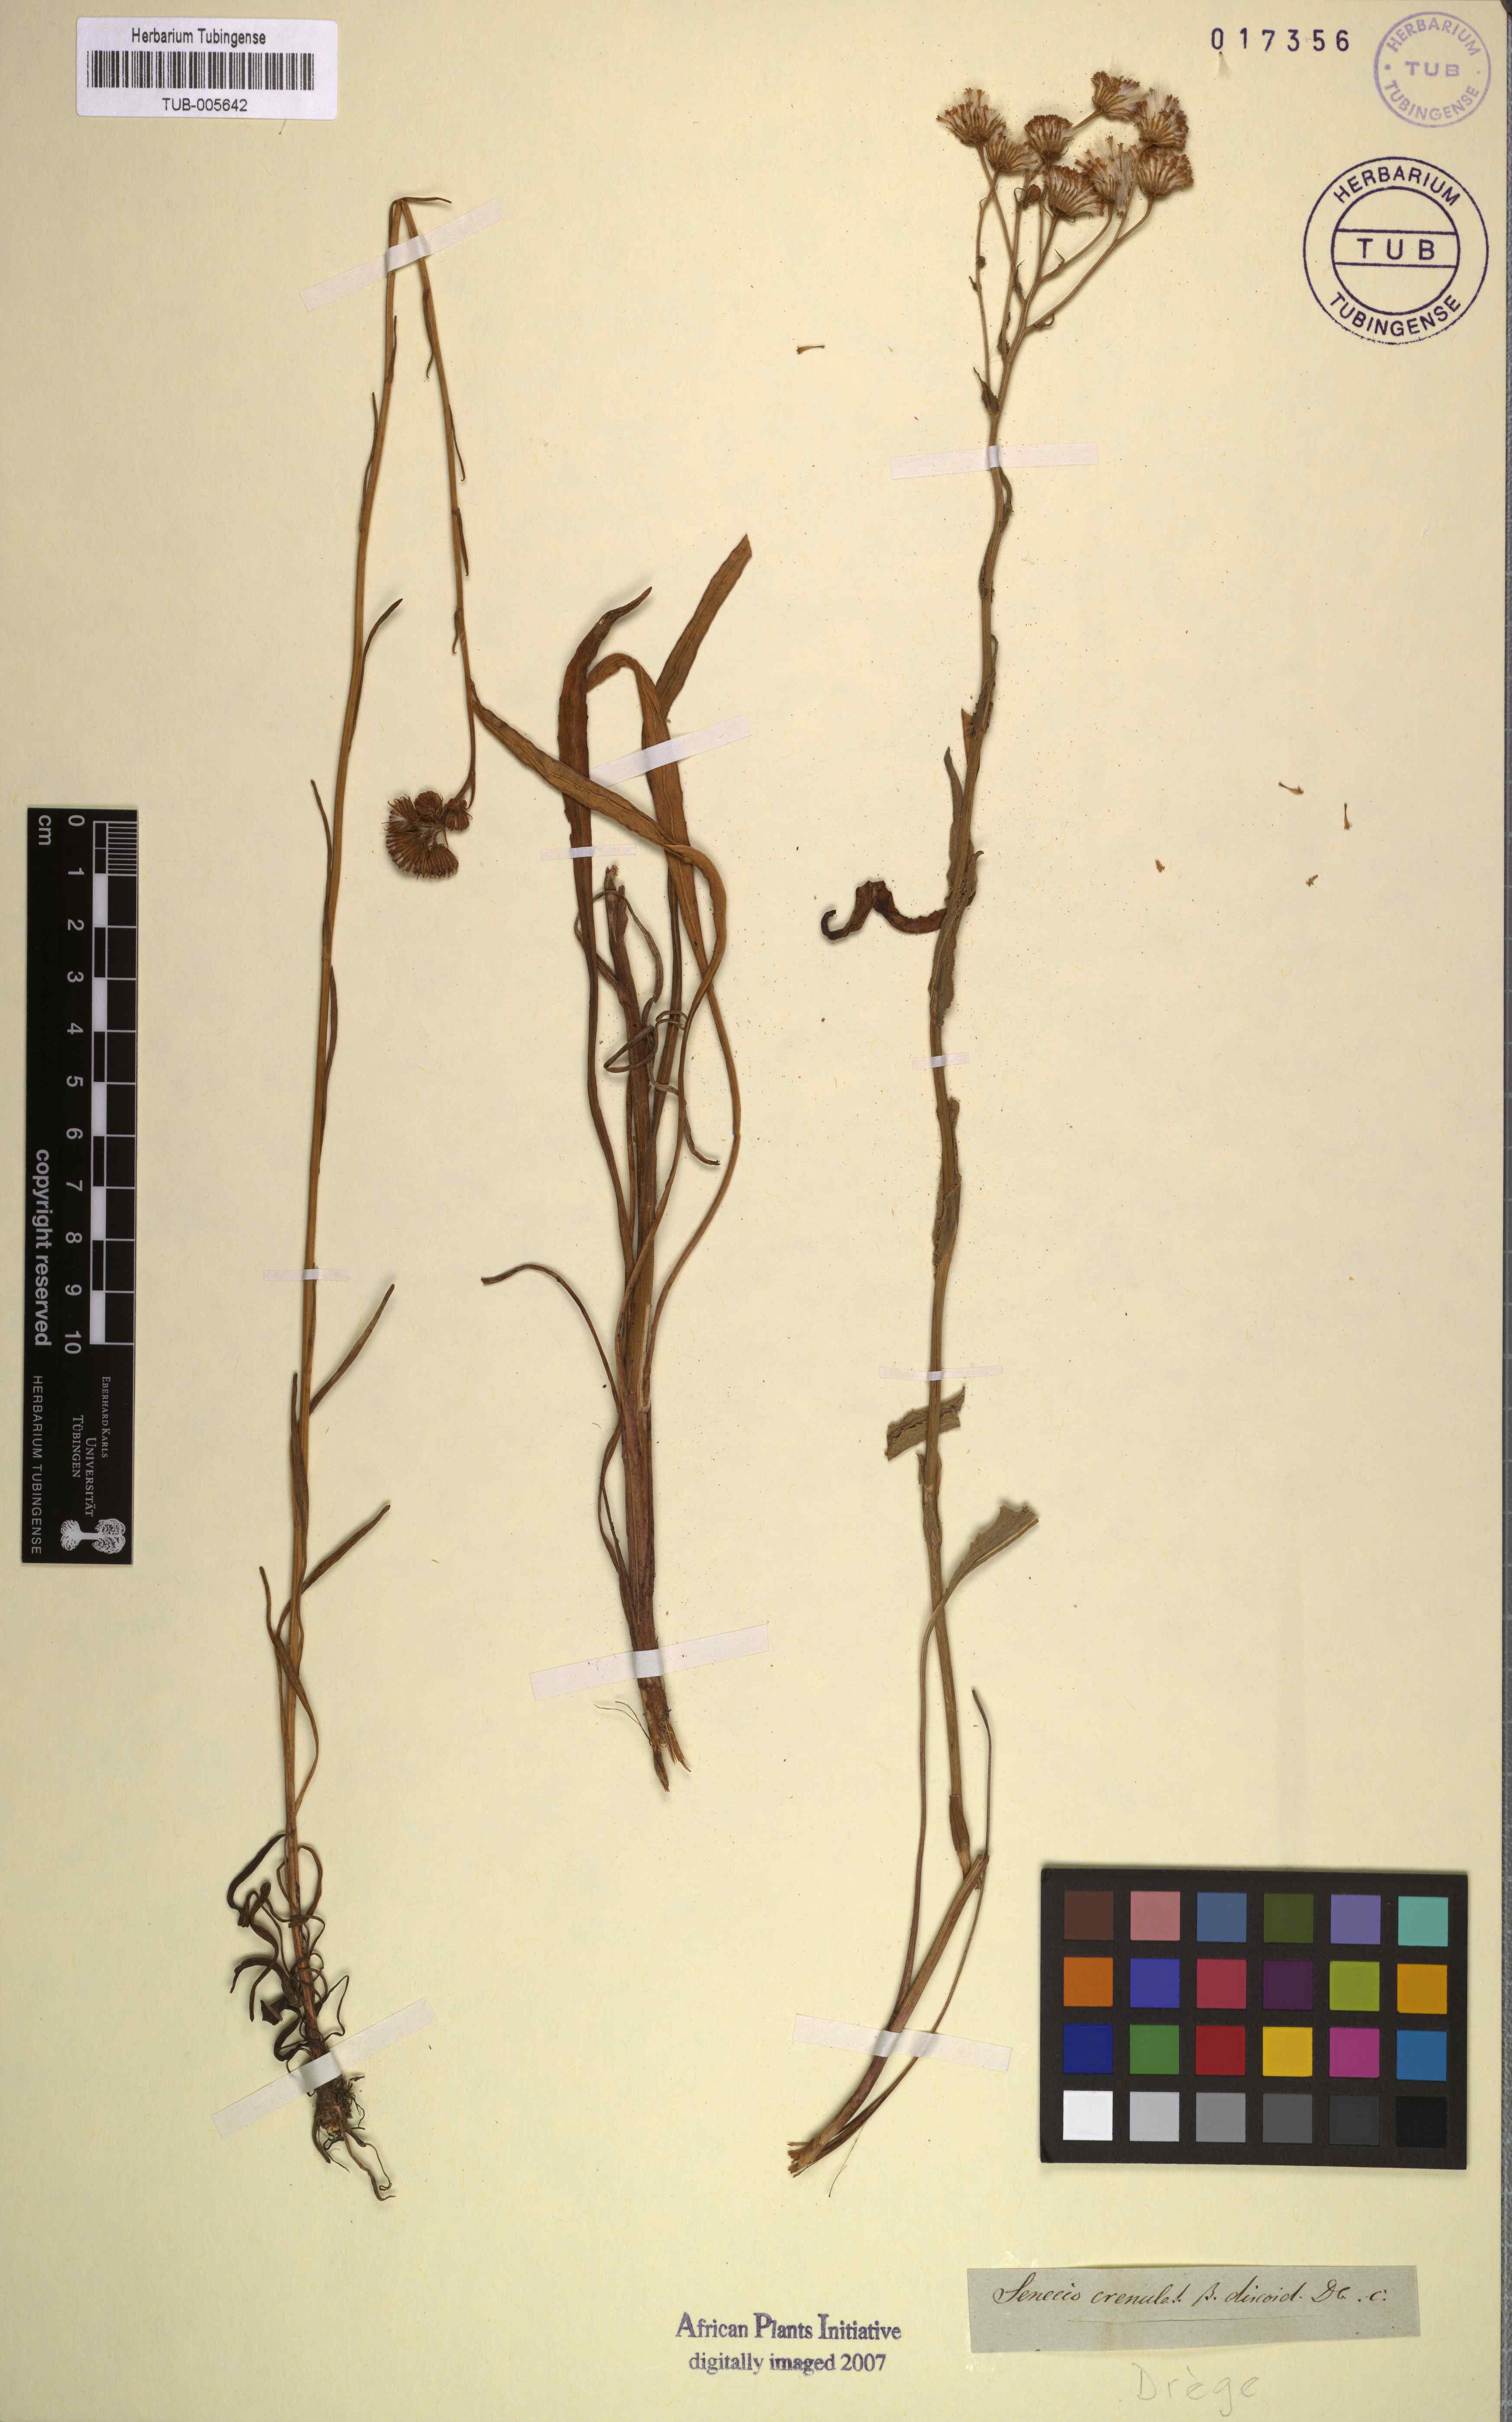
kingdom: Plantae
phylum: Tracheophyta
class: Magnoliopsida
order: Asterales
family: Asteraceae
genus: Senecio
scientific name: Senecio crenulatus
